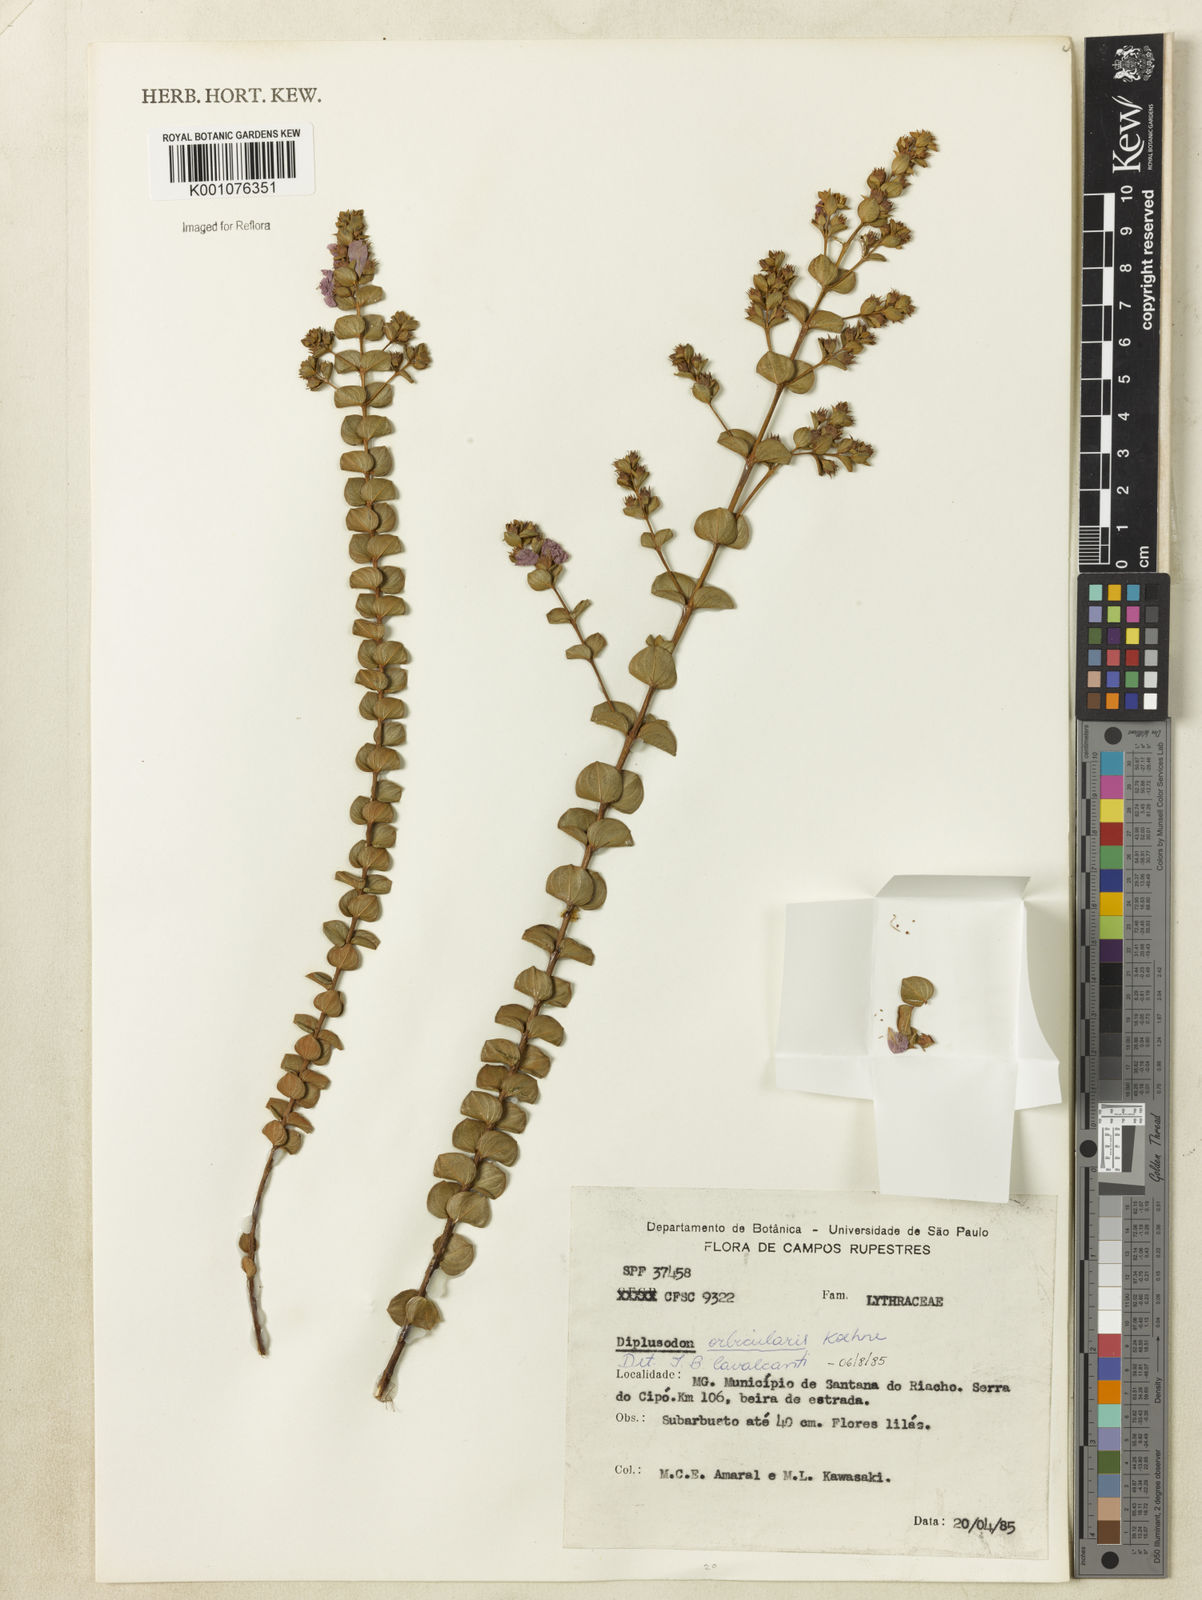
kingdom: Plantae
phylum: Tracheophyta
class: Magnoliopsida
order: Myrtales
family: Lythraceae
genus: Diplusodon
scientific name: Diplusodon orbicularis
